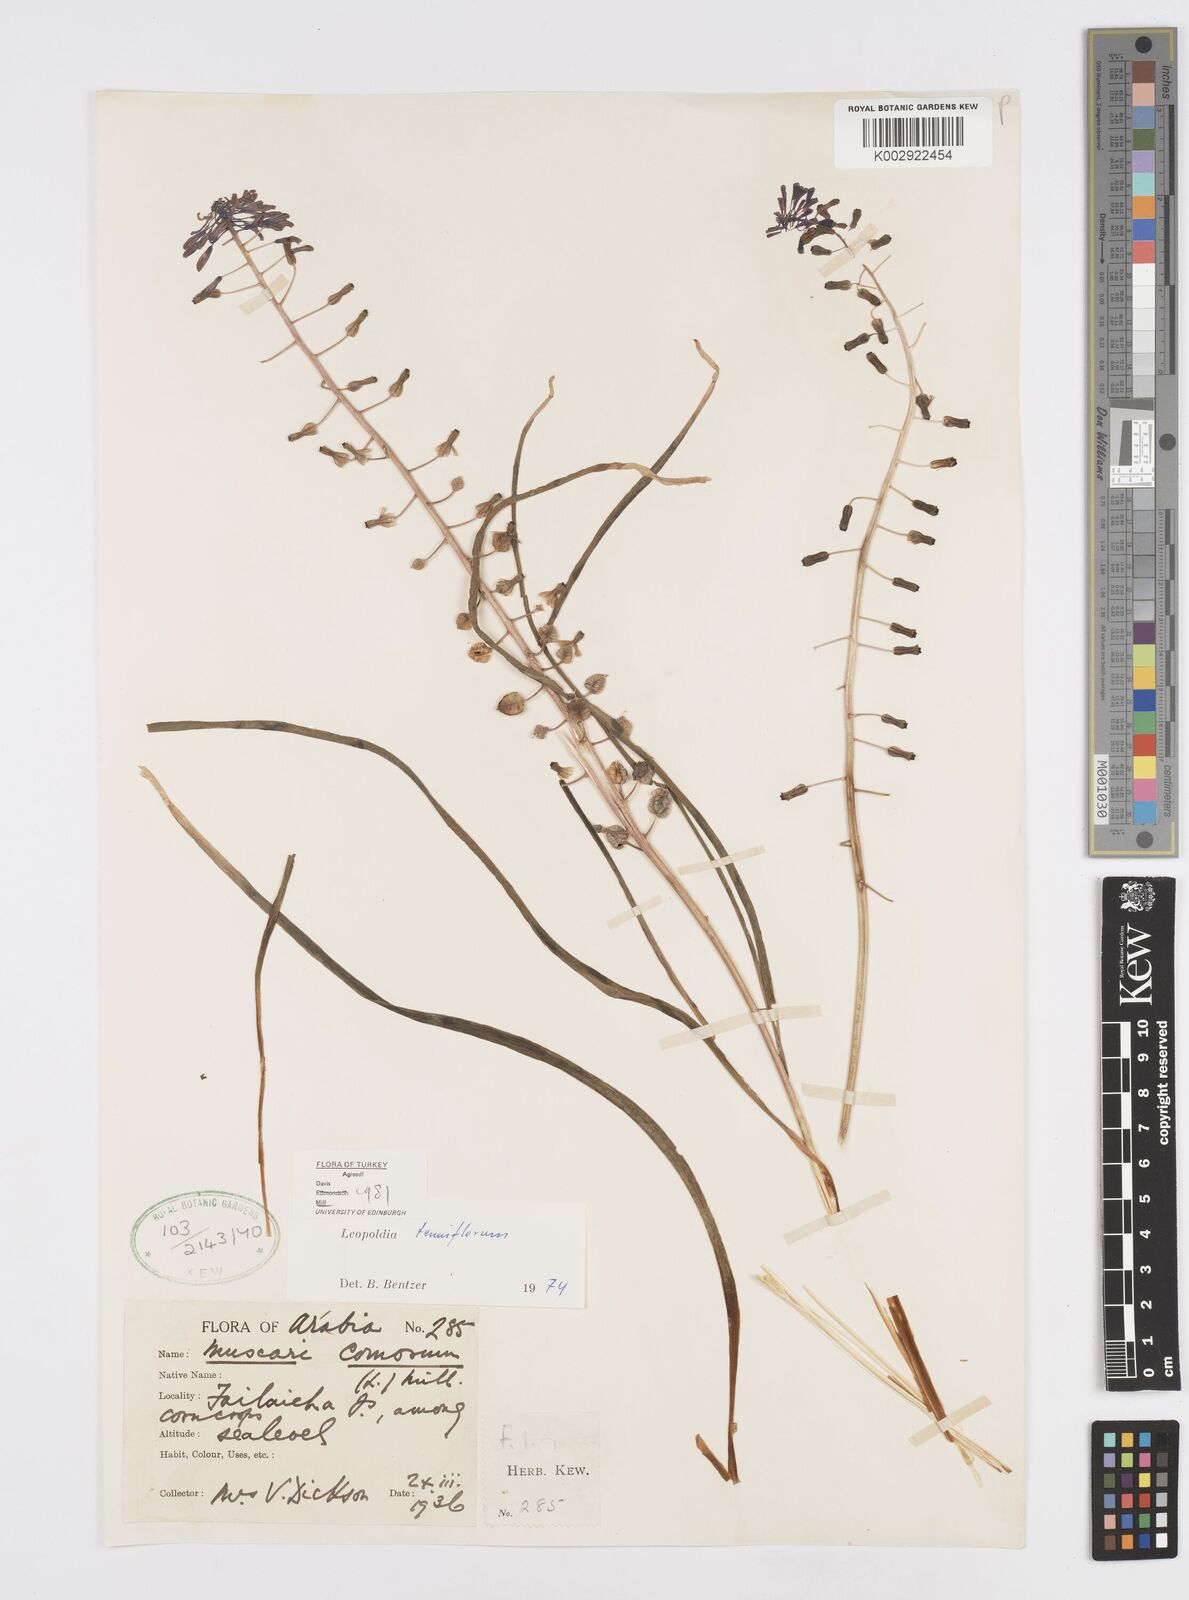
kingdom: Plantae
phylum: Tracheophyta
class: Liliopsida
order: Asparagales
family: Asparagaceae
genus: Muscari
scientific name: Muscari tenuiflorum
